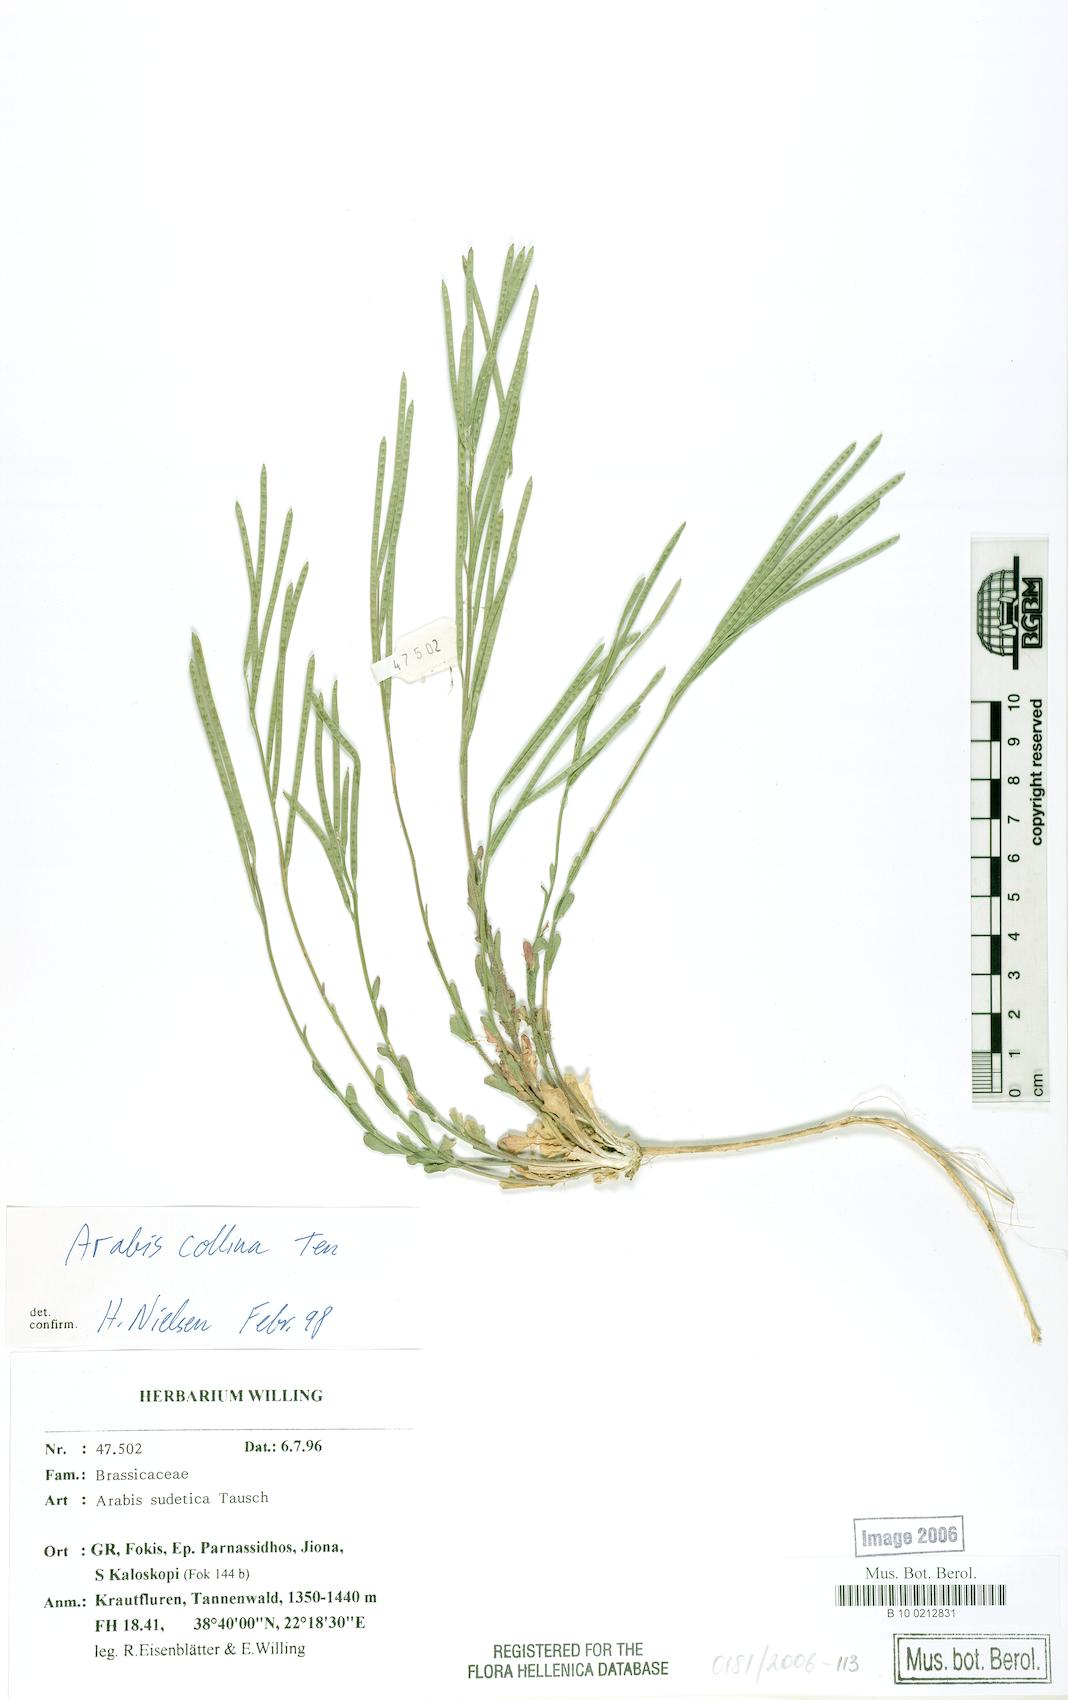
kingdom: Plantae
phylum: Tracheophyta
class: Magnoliopsida
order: Brassicales
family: Brassicaceae
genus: Arabis
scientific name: Arabis sudetica
